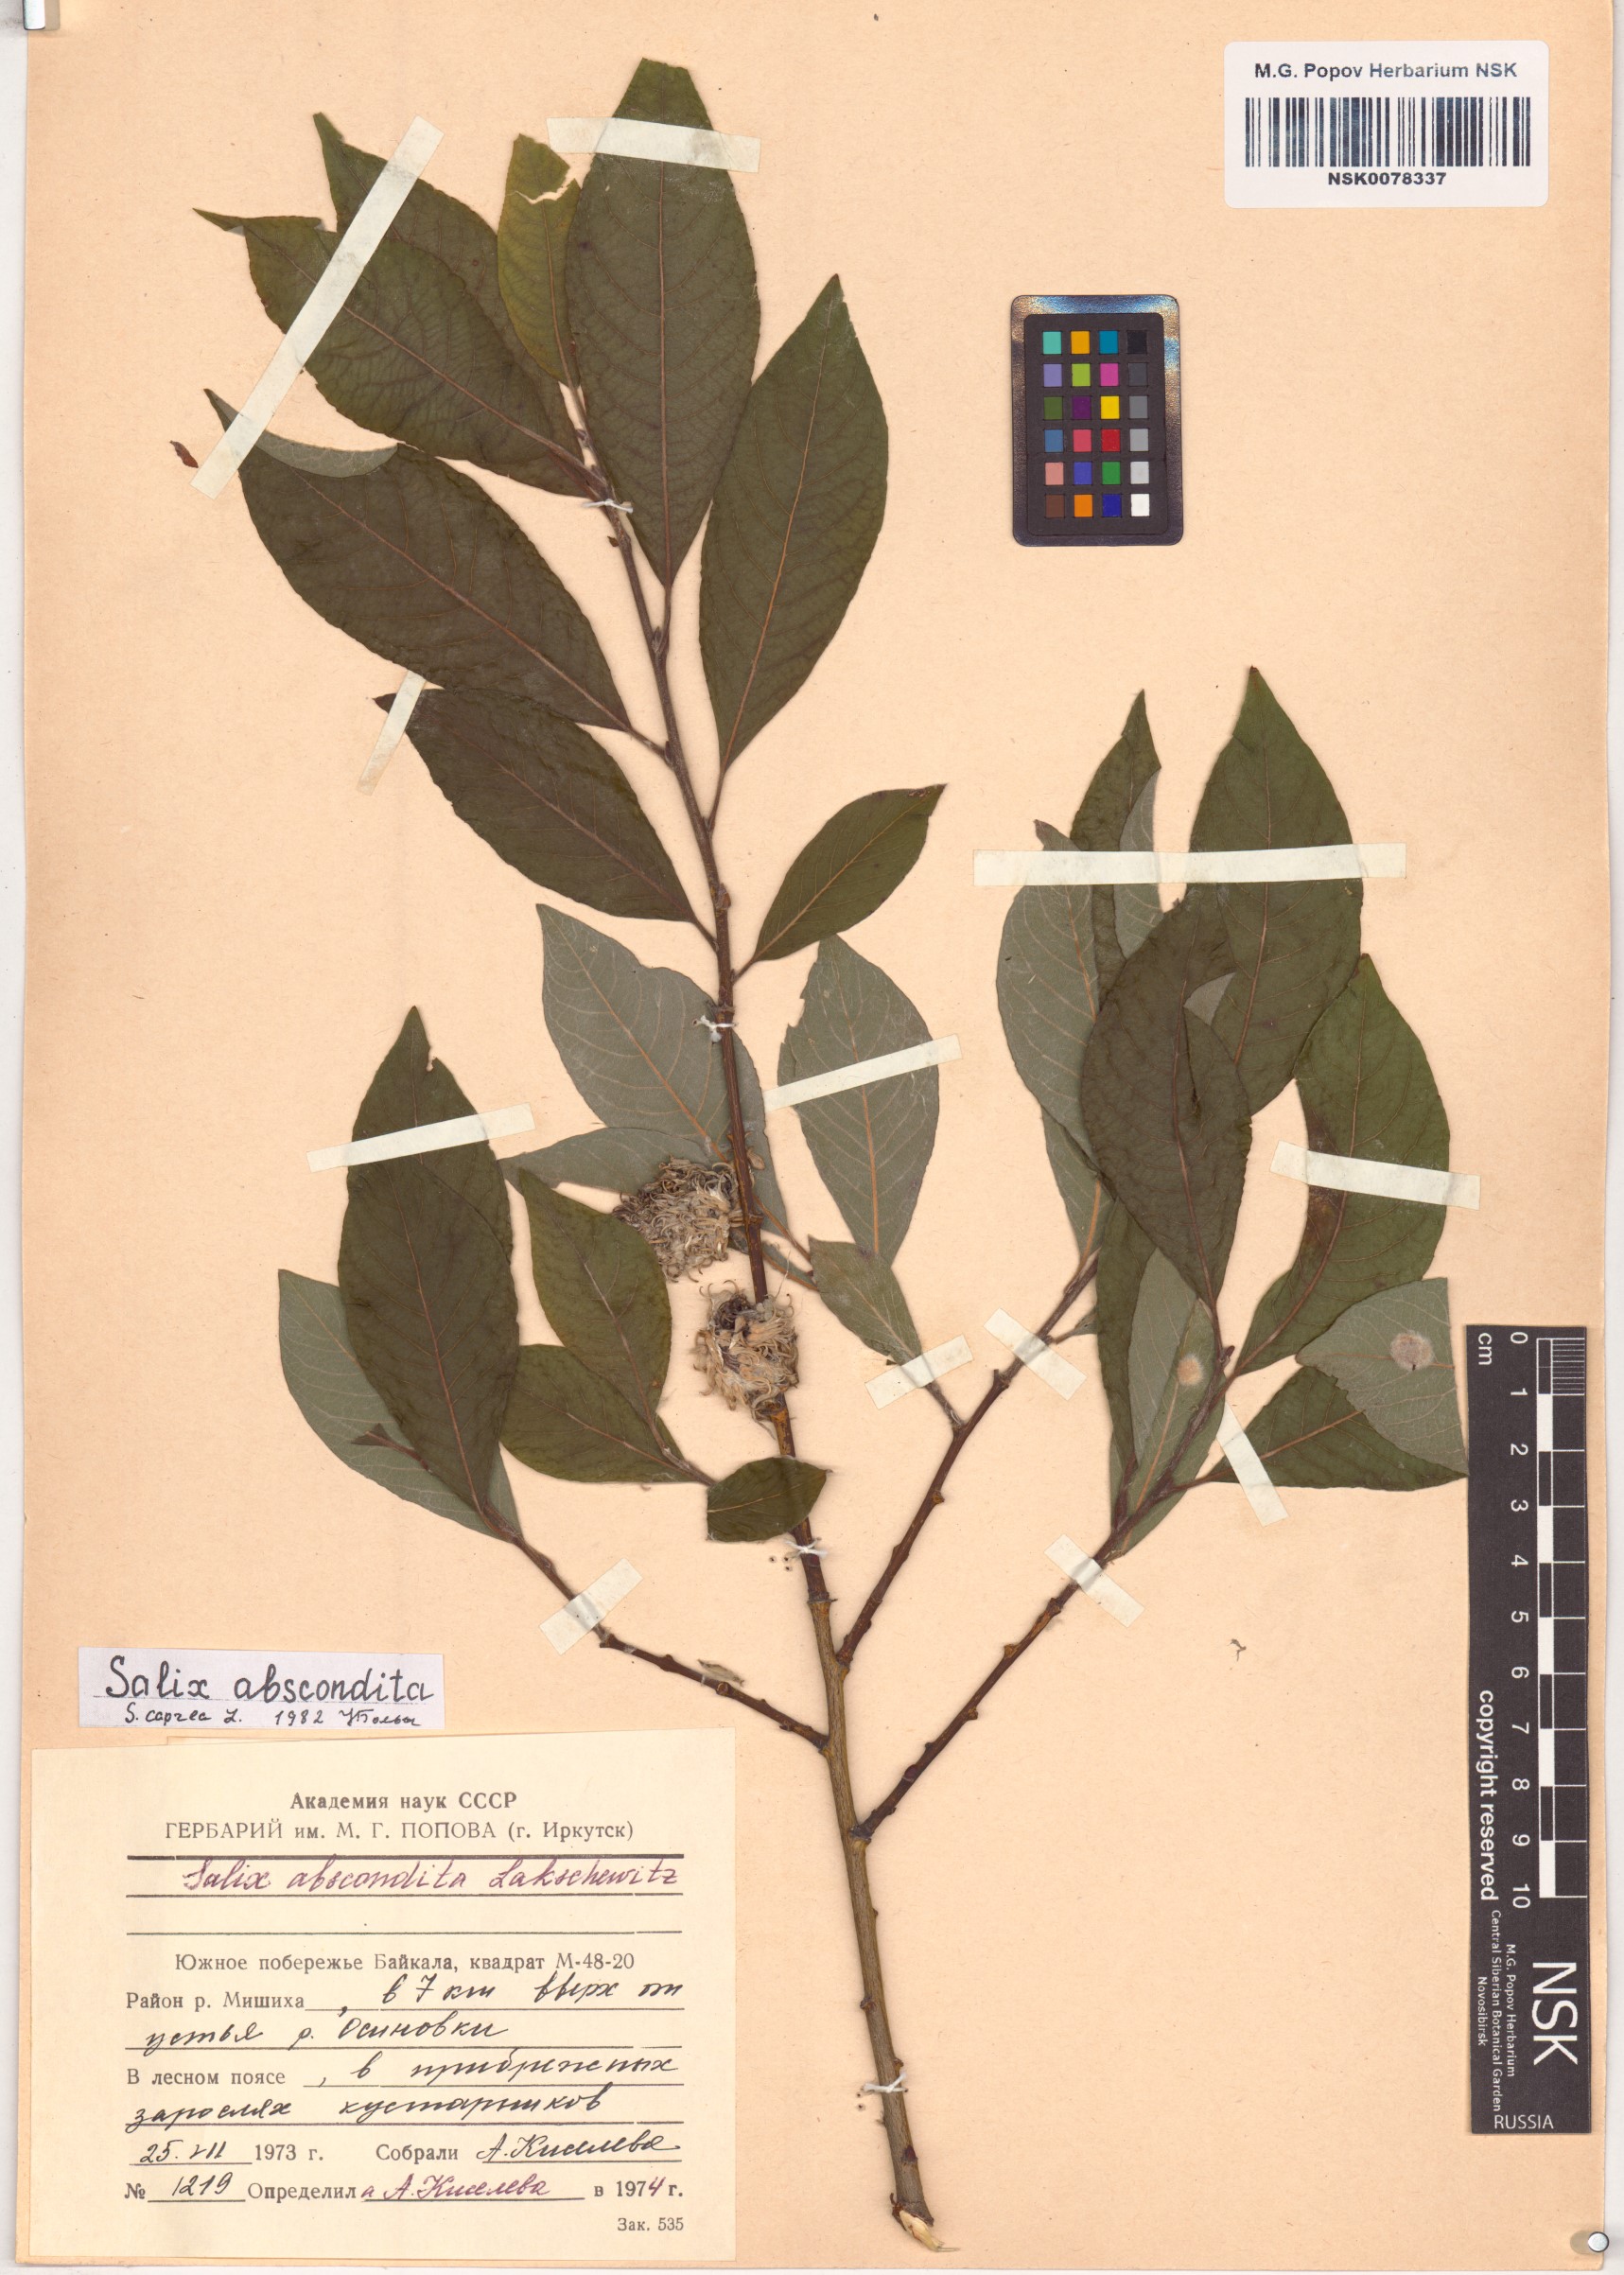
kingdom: Plantae
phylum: Tracheophyta
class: Magnoliopsida
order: Malpighiales
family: Salicaceae
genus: Salix
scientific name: Salix caprea
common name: Goat willow
